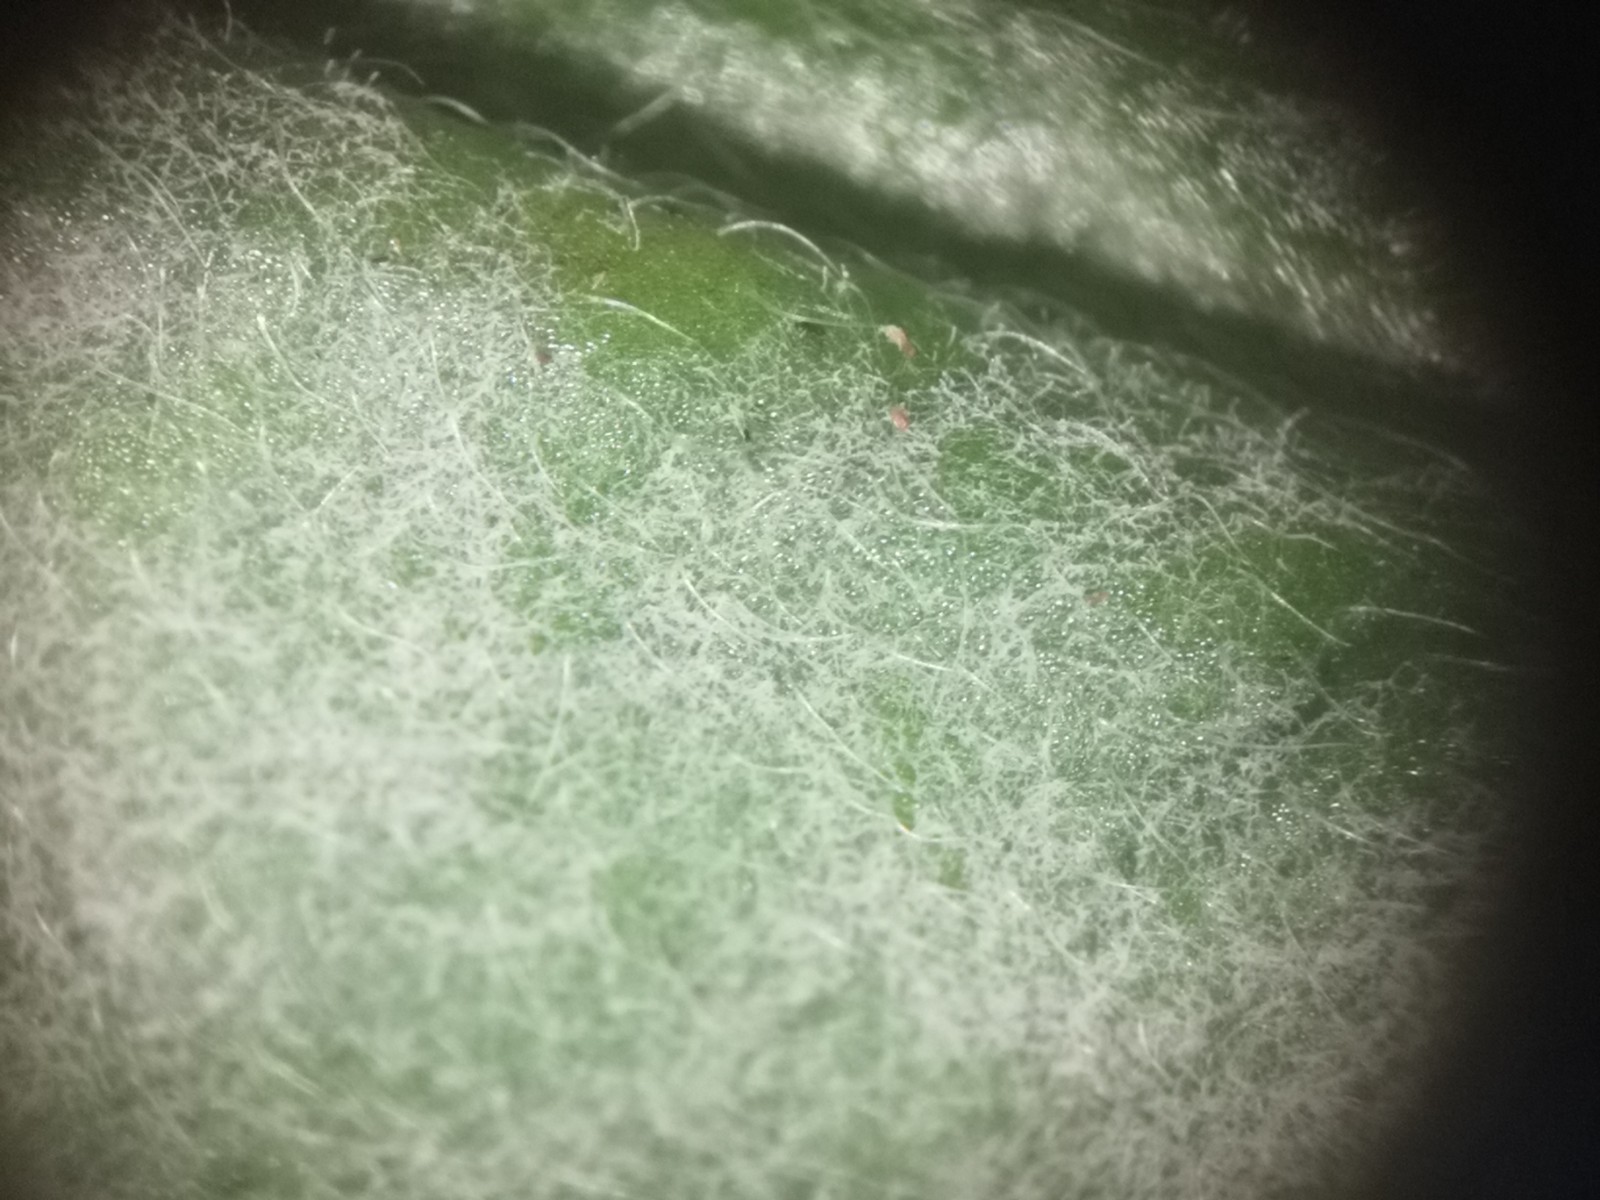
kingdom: Fungi
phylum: Ascomycota
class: Leotiomycetes
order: Helotiales
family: Erysiphaceae
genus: Golovinomyces
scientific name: Golovinomyces cynoglossi
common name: rublad-meldug
